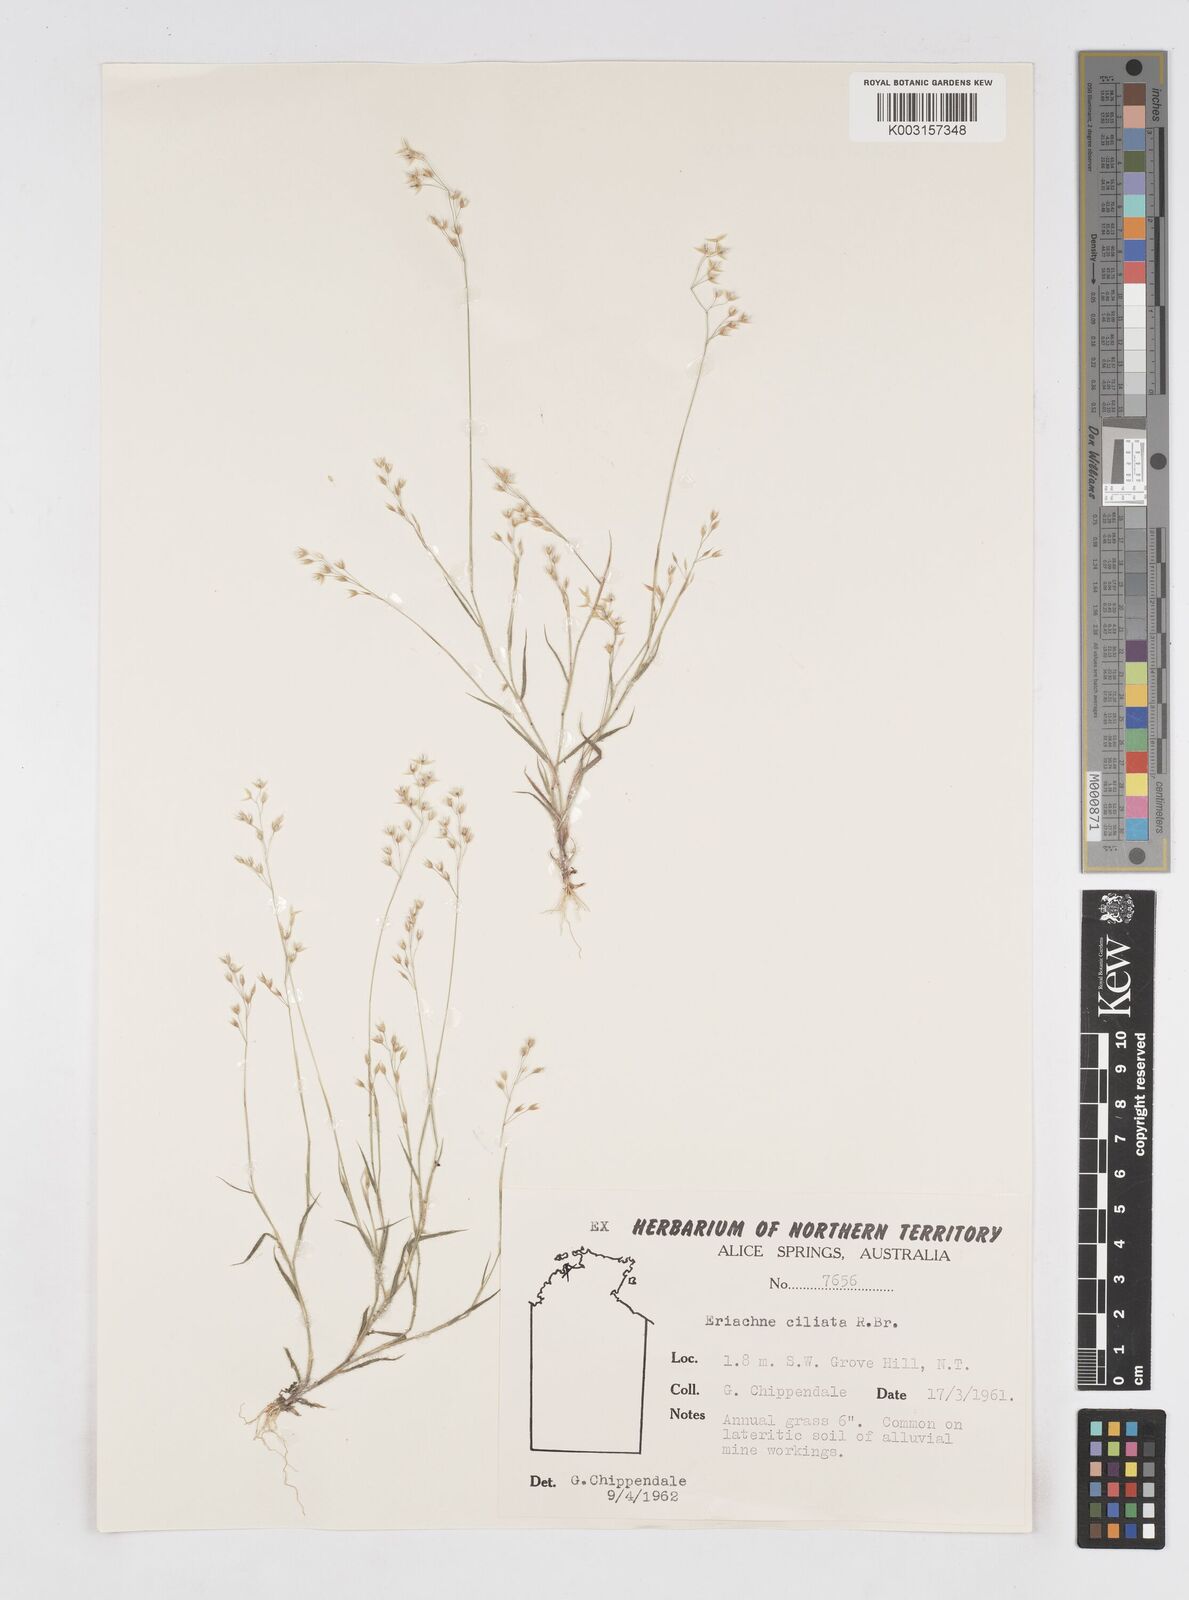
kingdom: Plantae
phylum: Tracheophyta
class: Liliopsida
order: Poales
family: Poaceae
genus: Eriachne
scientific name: Eriachne ciliata
